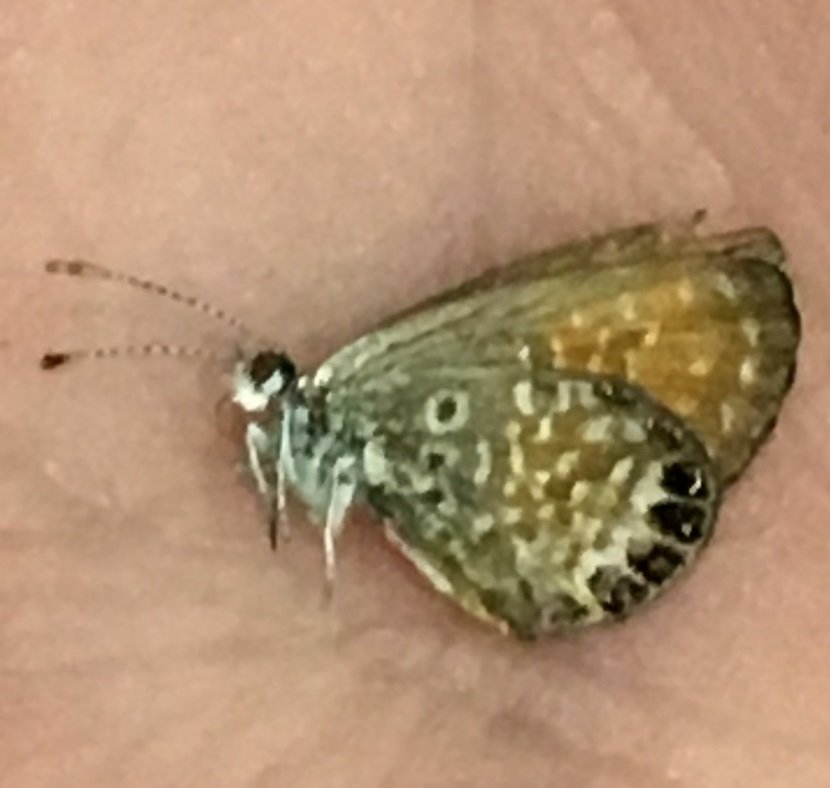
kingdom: Animalia
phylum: Arthropoda
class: Insecta
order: Lepidoptera
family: Lycaenidae
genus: Brephidium
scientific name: Brephidium exilis
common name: Western Pygmy-Blue
